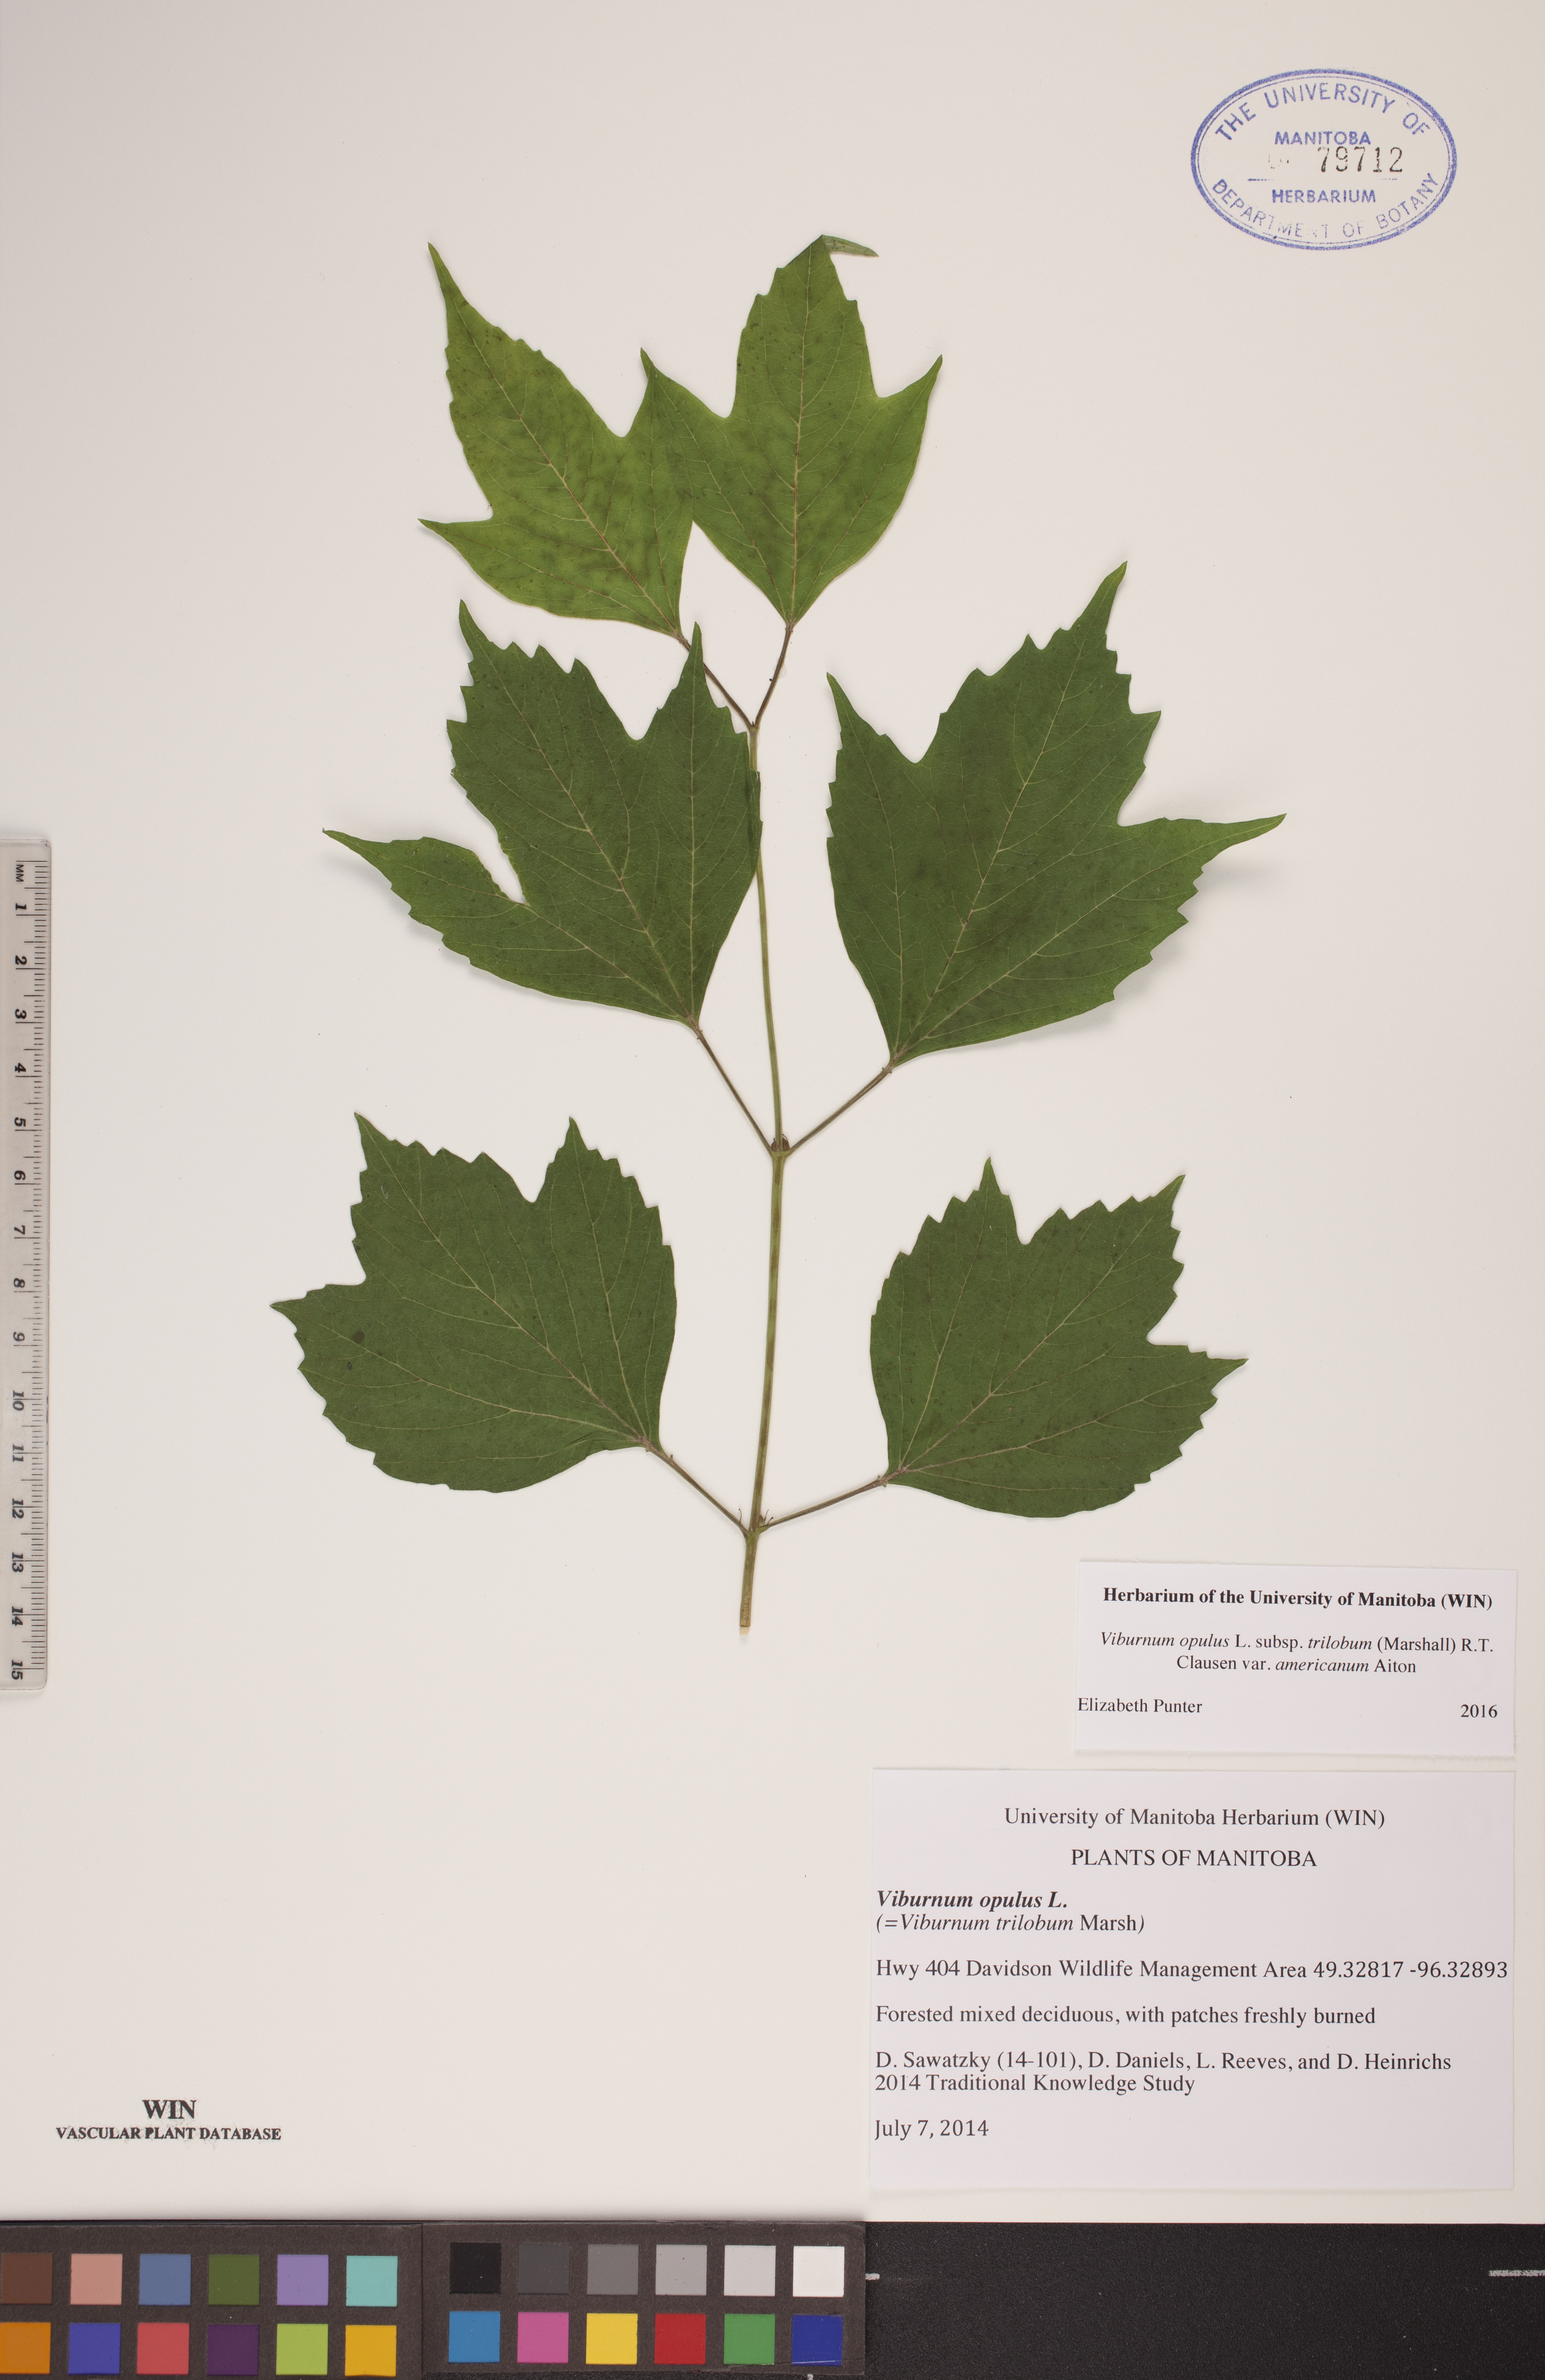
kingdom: Plantae
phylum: Tracheophyta
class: Magnoliopsida
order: Dipsacales
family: Viburnaceae
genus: Viburnum
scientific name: Viburnum trilobum
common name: American cranberrybush
